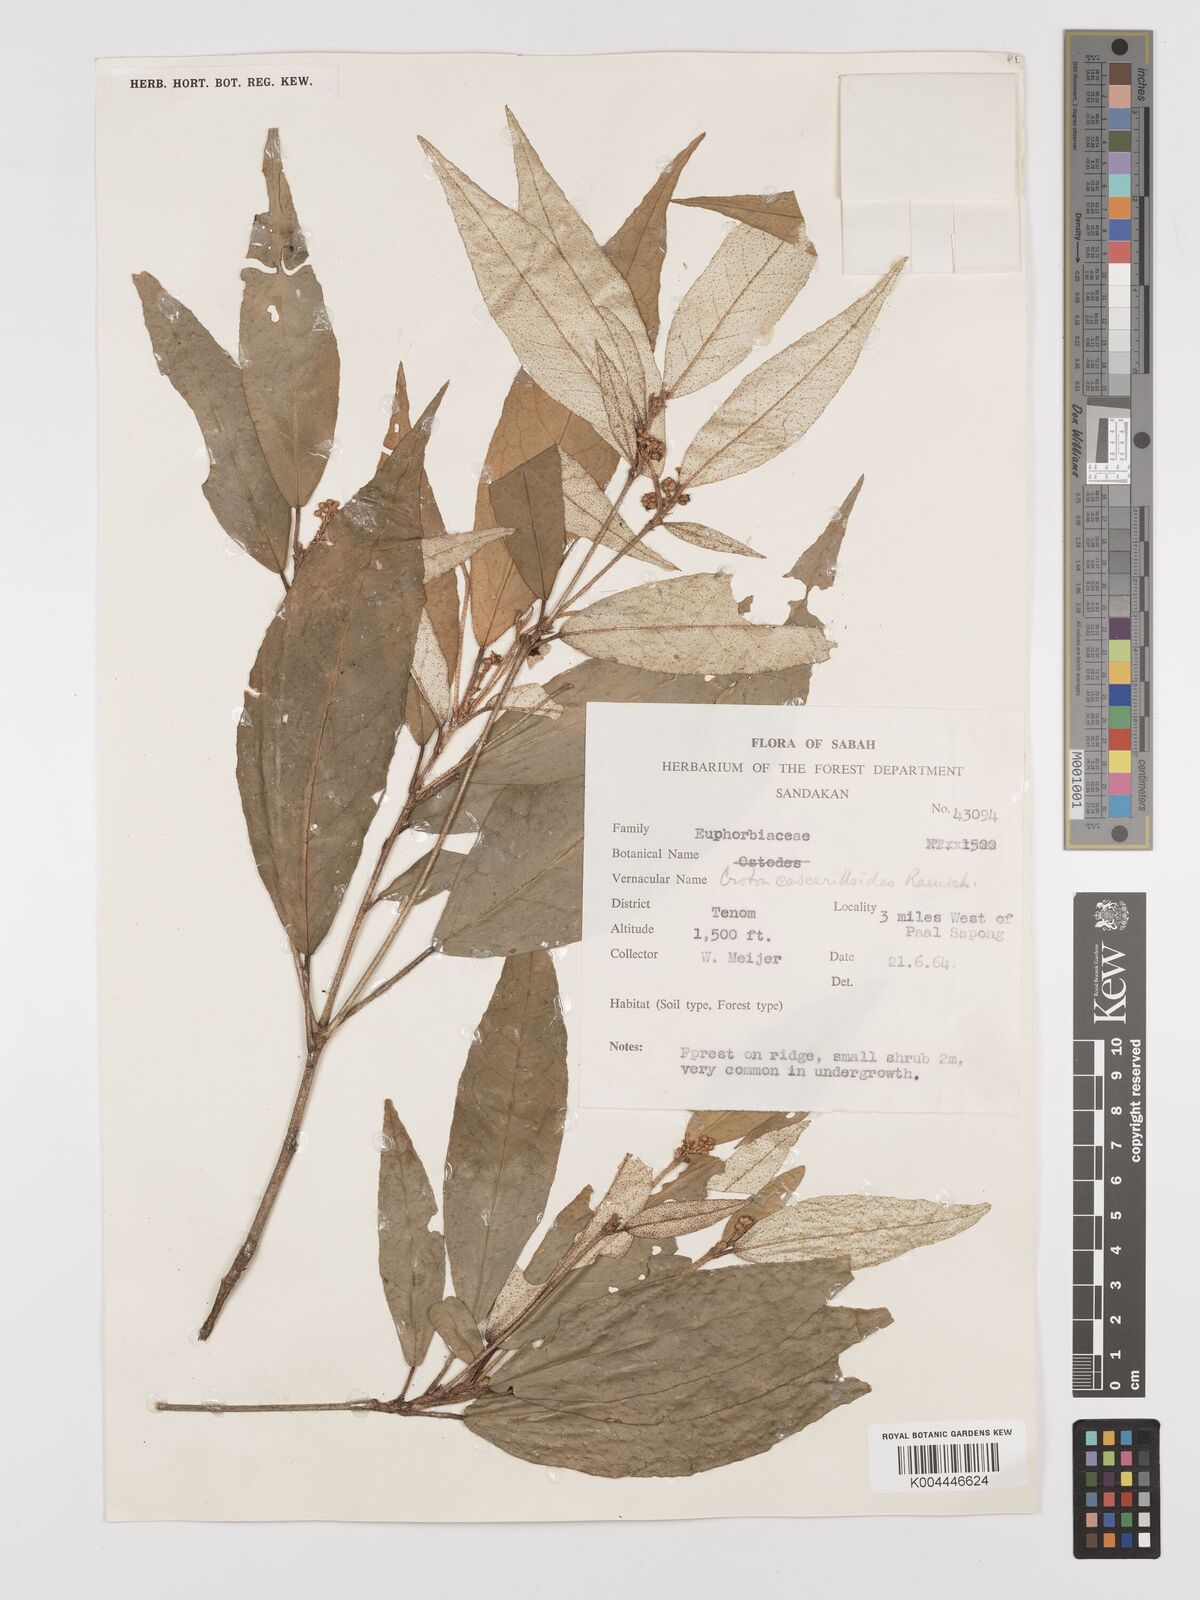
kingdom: Plantae
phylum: Tracheophyta
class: Magnoliopsida
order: Malpighiales
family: Euphorbiaceae
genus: Croton
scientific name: Croton cascarilloides
